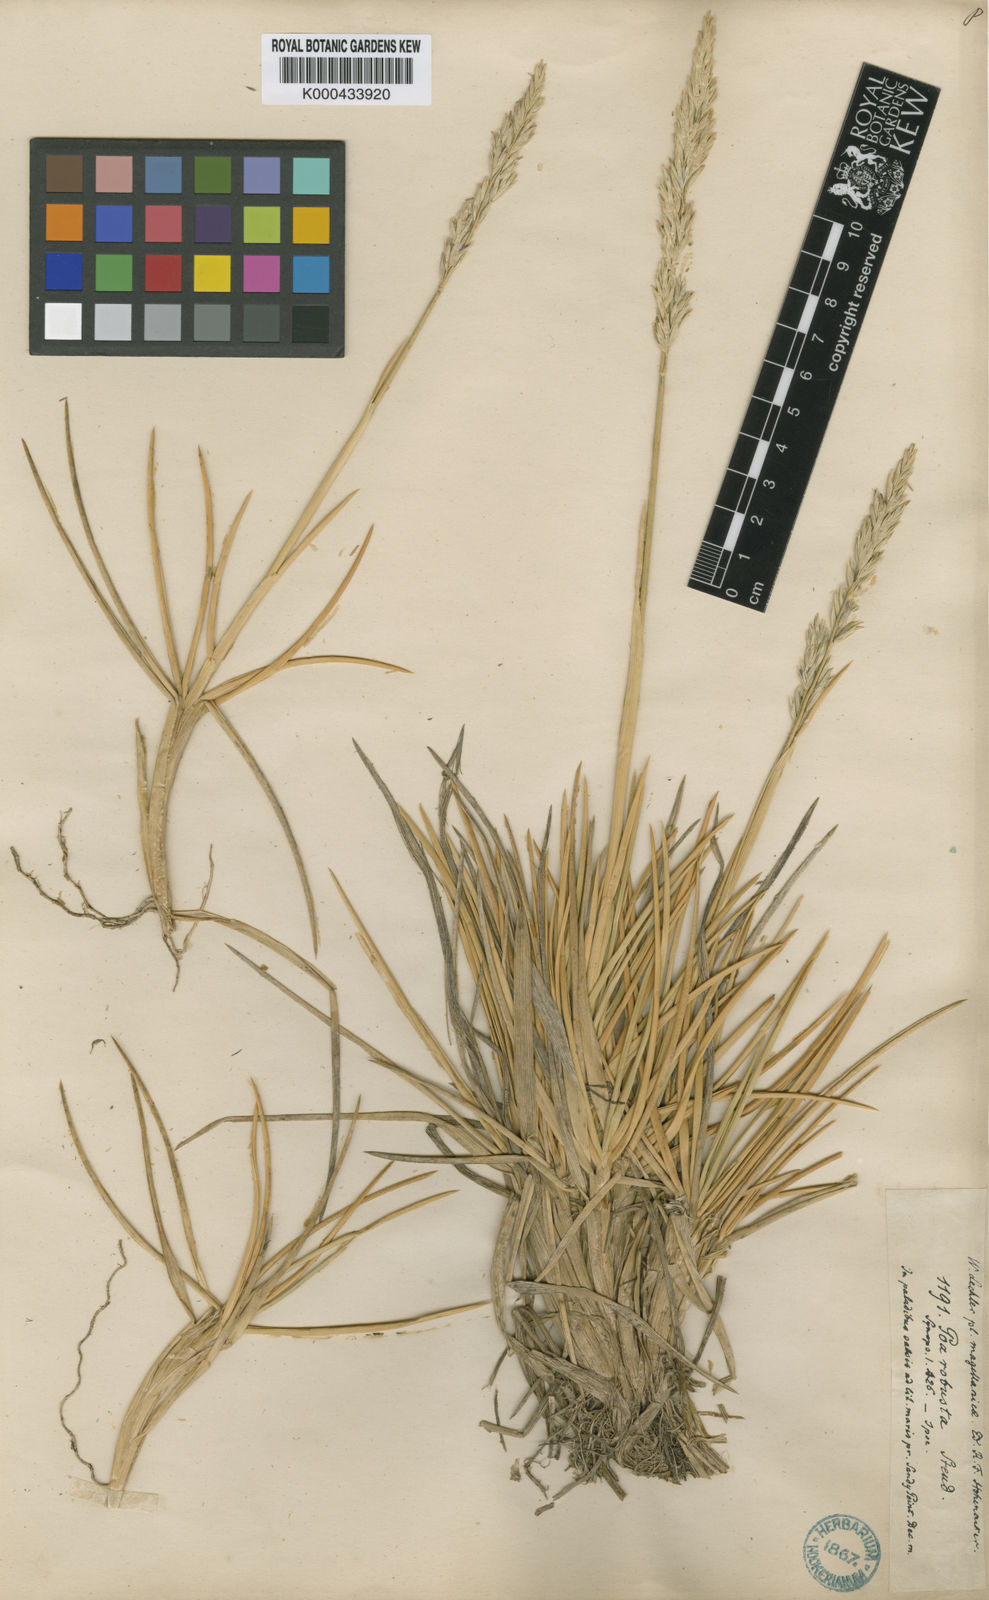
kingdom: Plantae
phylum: Tracheophyta
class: Liliopsida
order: Poales
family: Poaceae
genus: Nicoraepoa
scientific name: Nicoraepoa robusta
